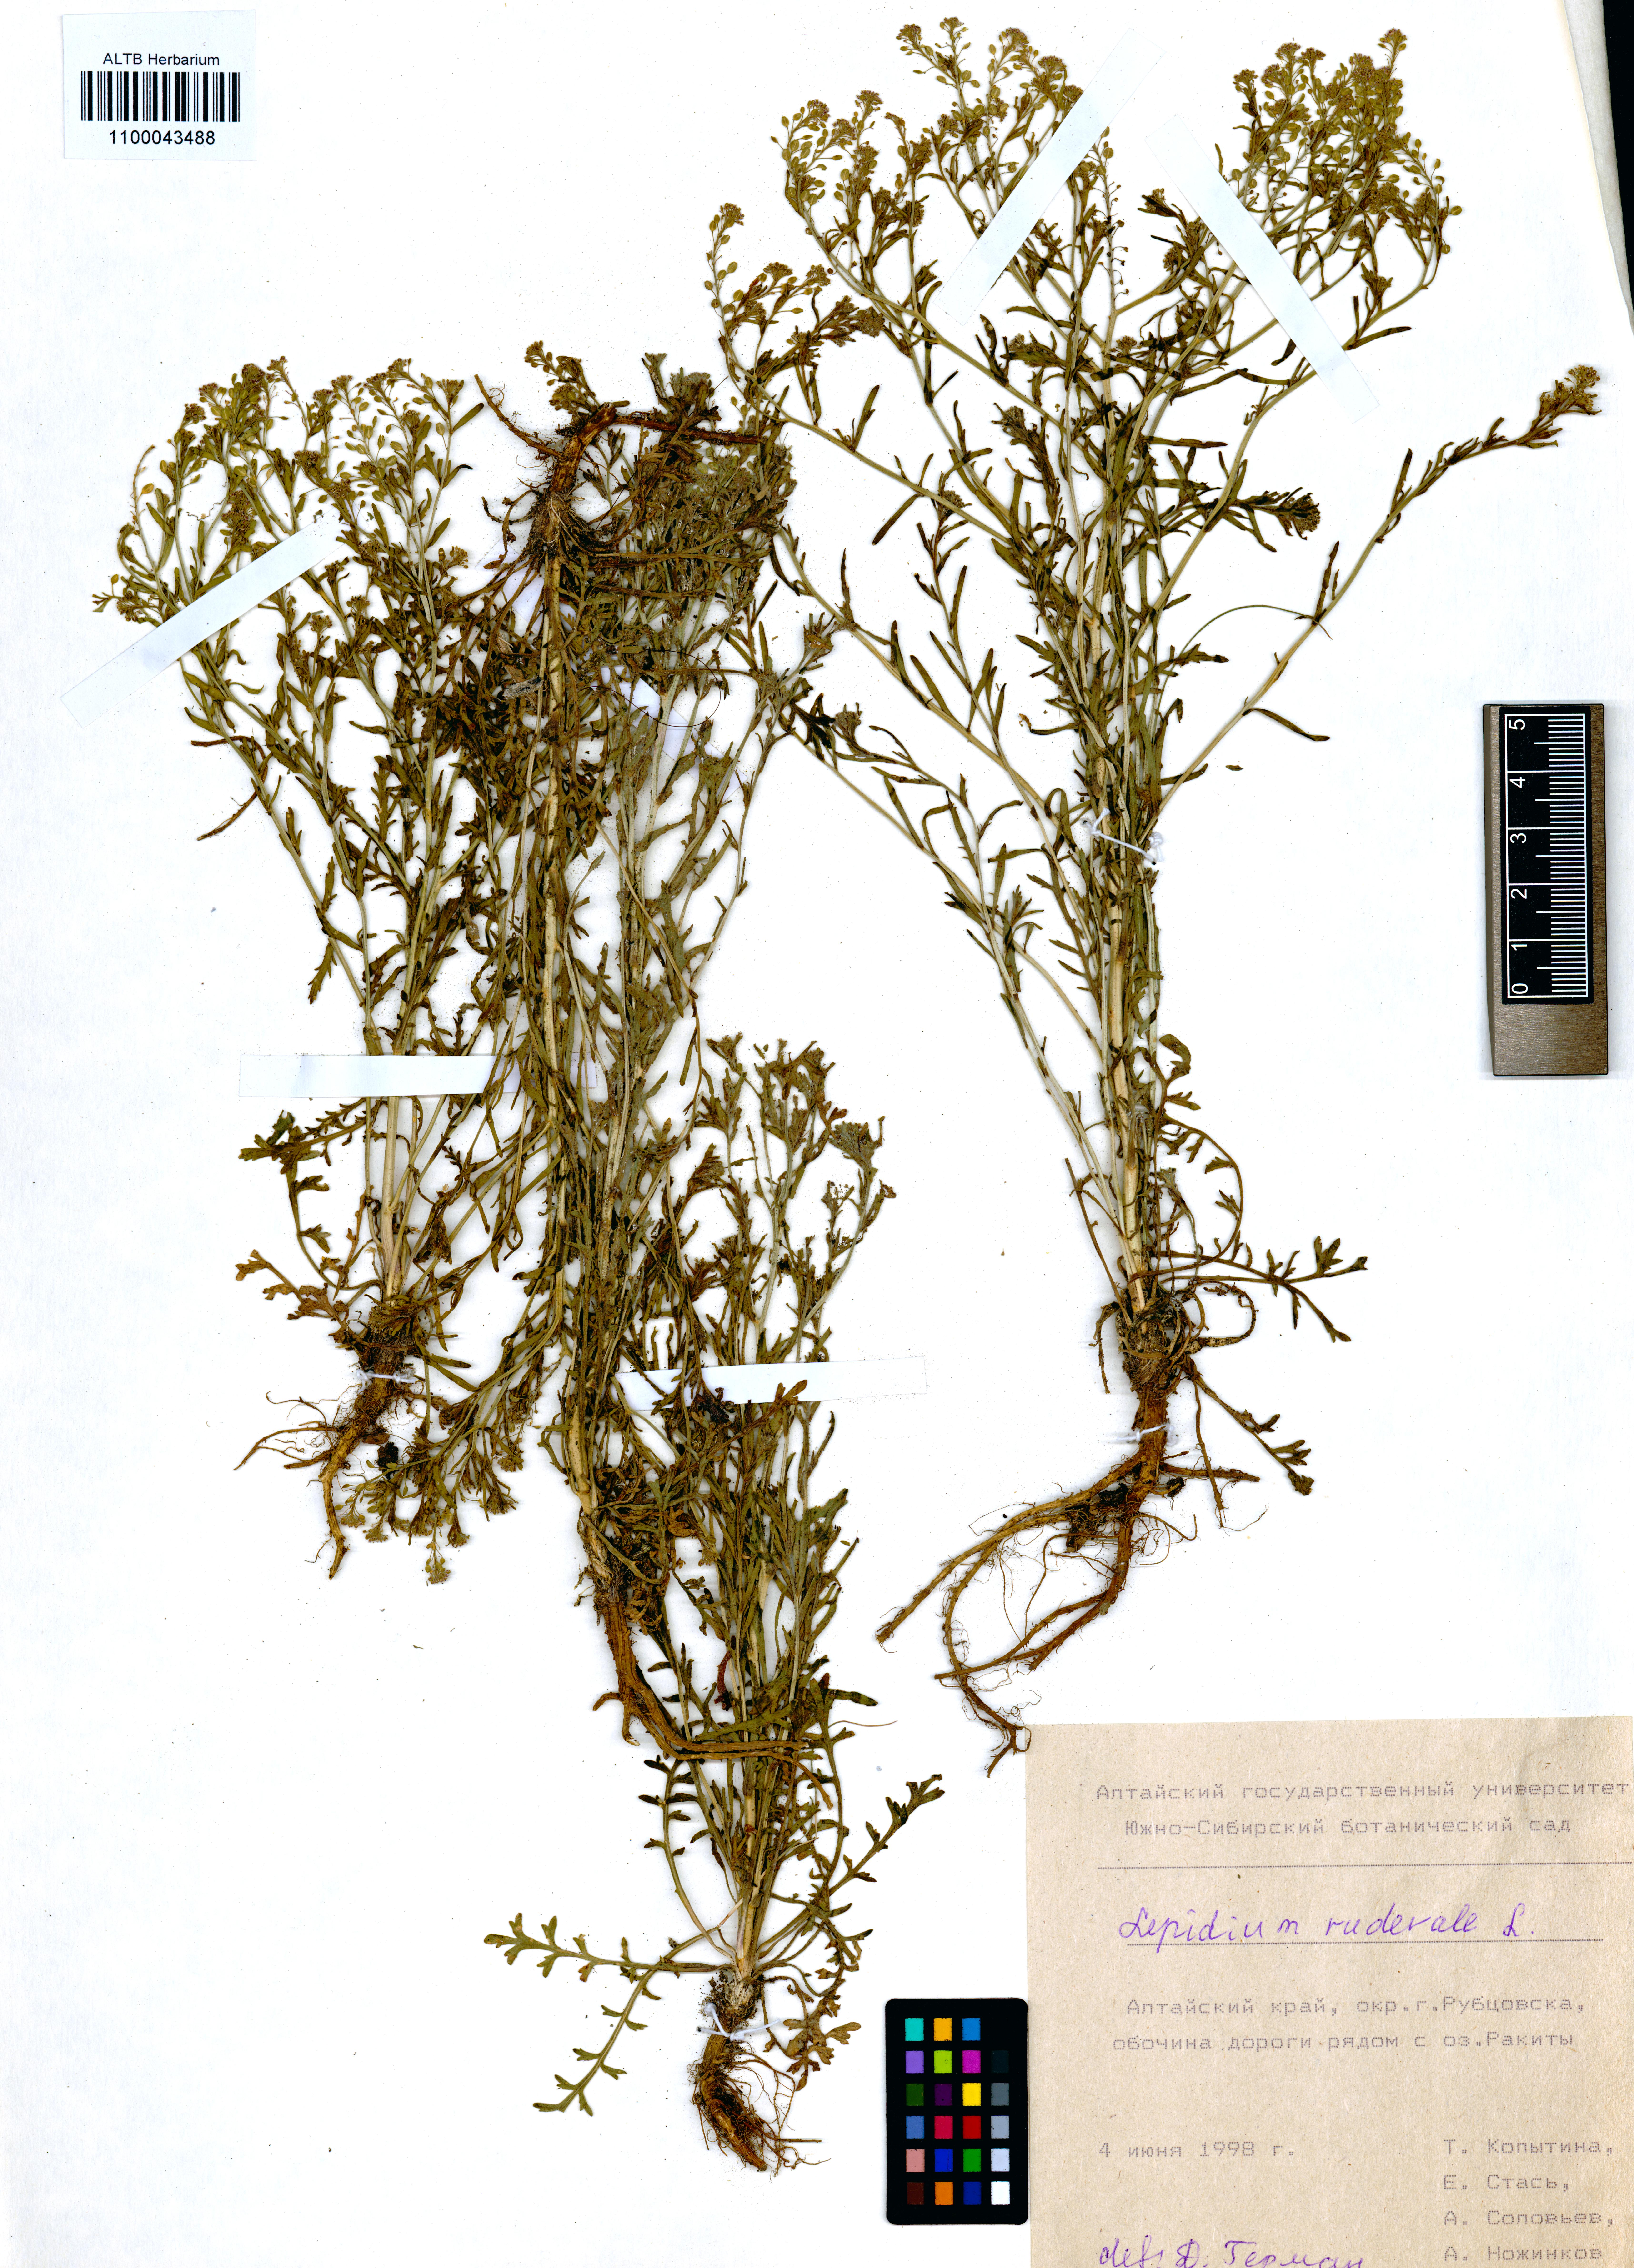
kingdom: Plantae
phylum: Tracheophyta
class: Magnoliopsida
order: Brassicales
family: Brassicaceae
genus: Lepidium
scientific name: Lepidium ruderale
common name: Narrow-leaved pepperwort
